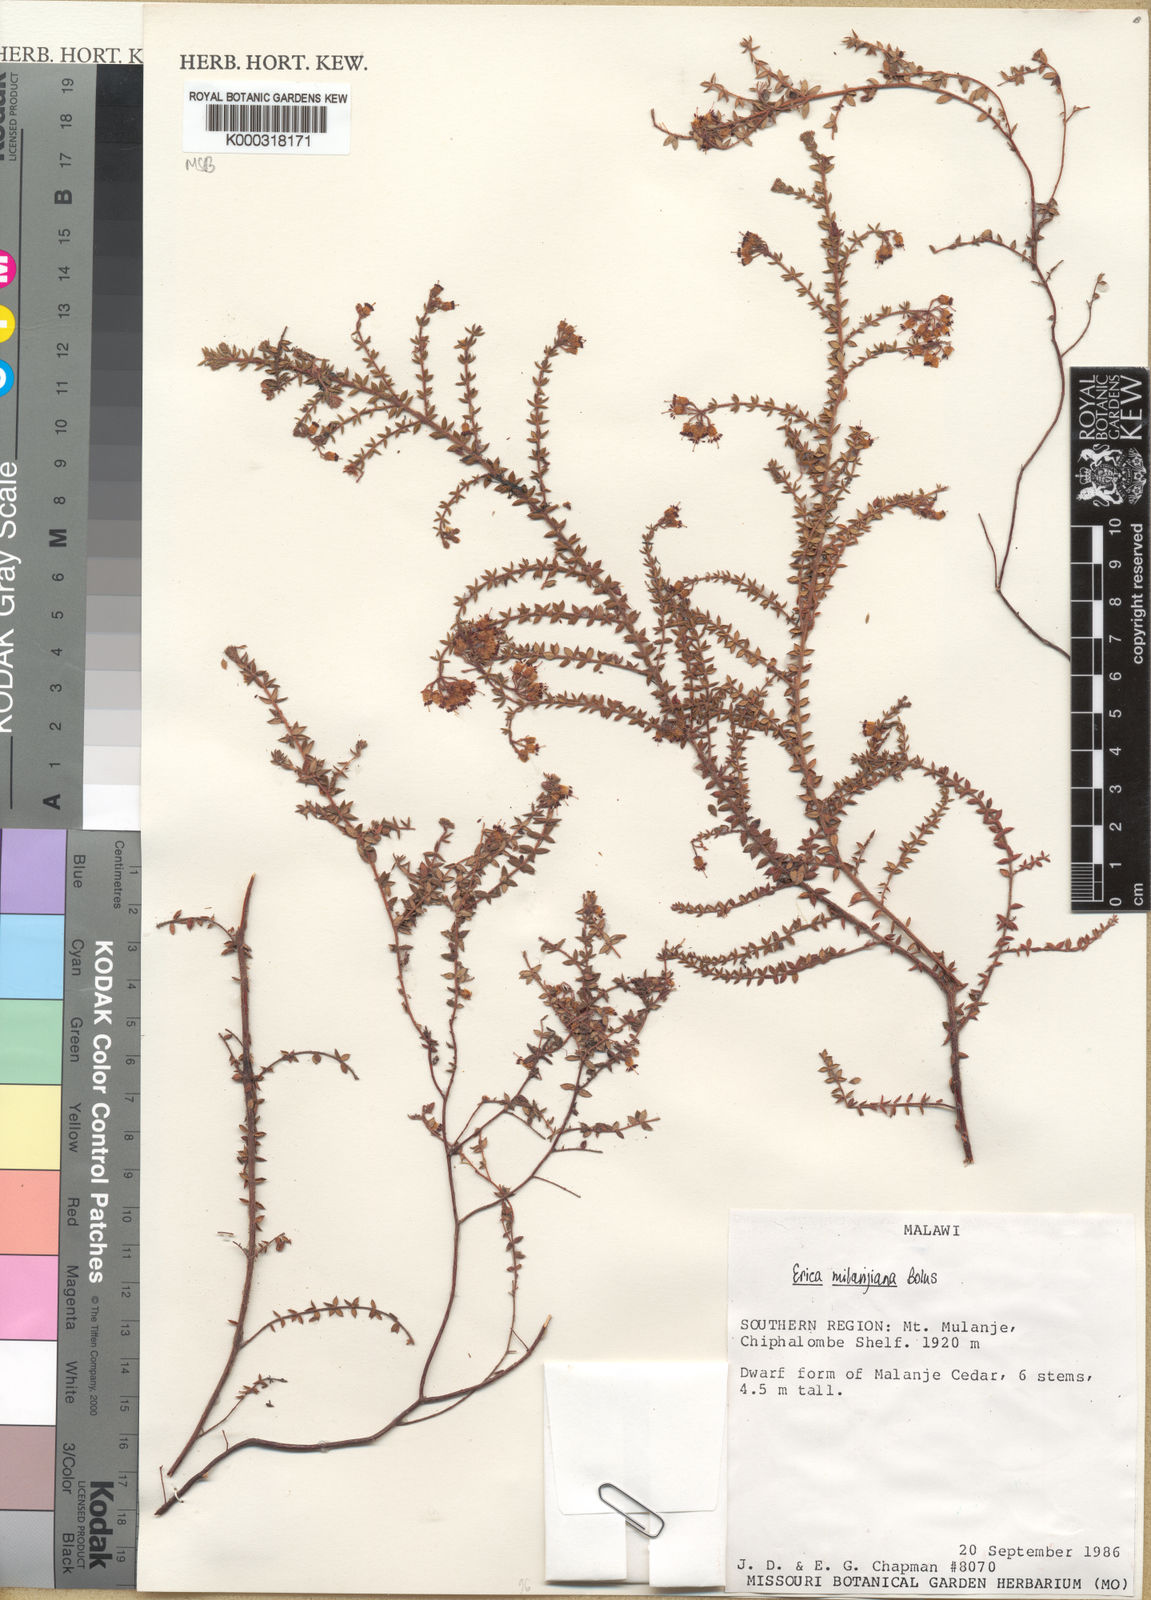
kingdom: Plantae
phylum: Tracheophyta
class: Magnoliopsida
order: Ericales
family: Ericaceae
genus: Erica
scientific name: Erica milanjiana
